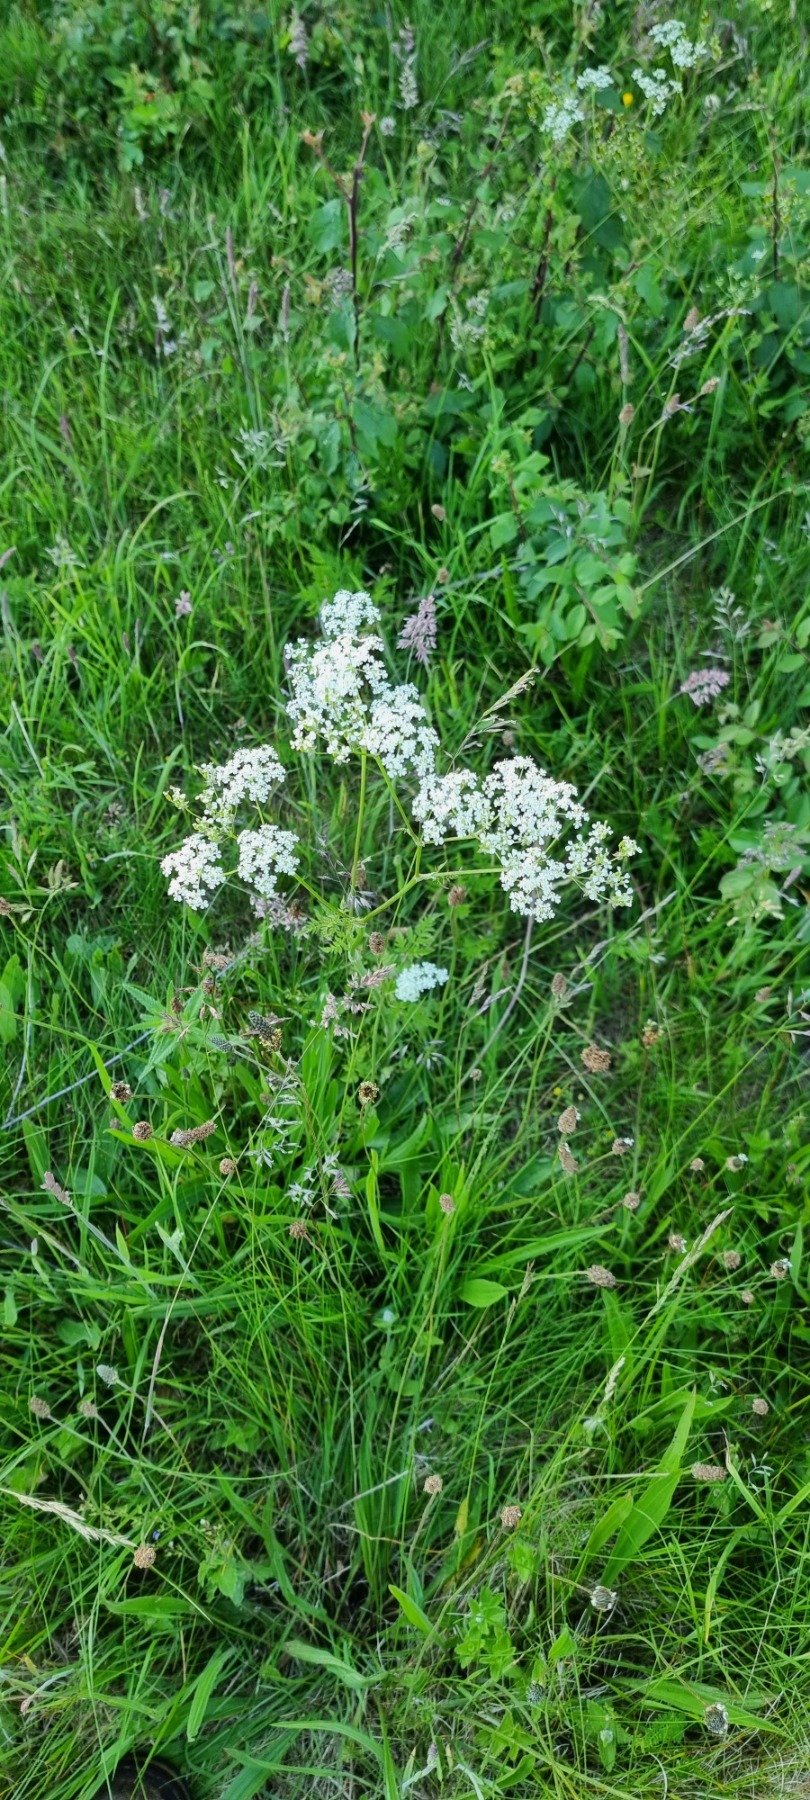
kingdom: Plantae
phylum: Tracheophyta
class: Magnoliopsida
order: Apiales
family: Apiaceae
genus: Anthriscus
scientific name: Anthriscus sylvestris
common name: Vild kørvel
